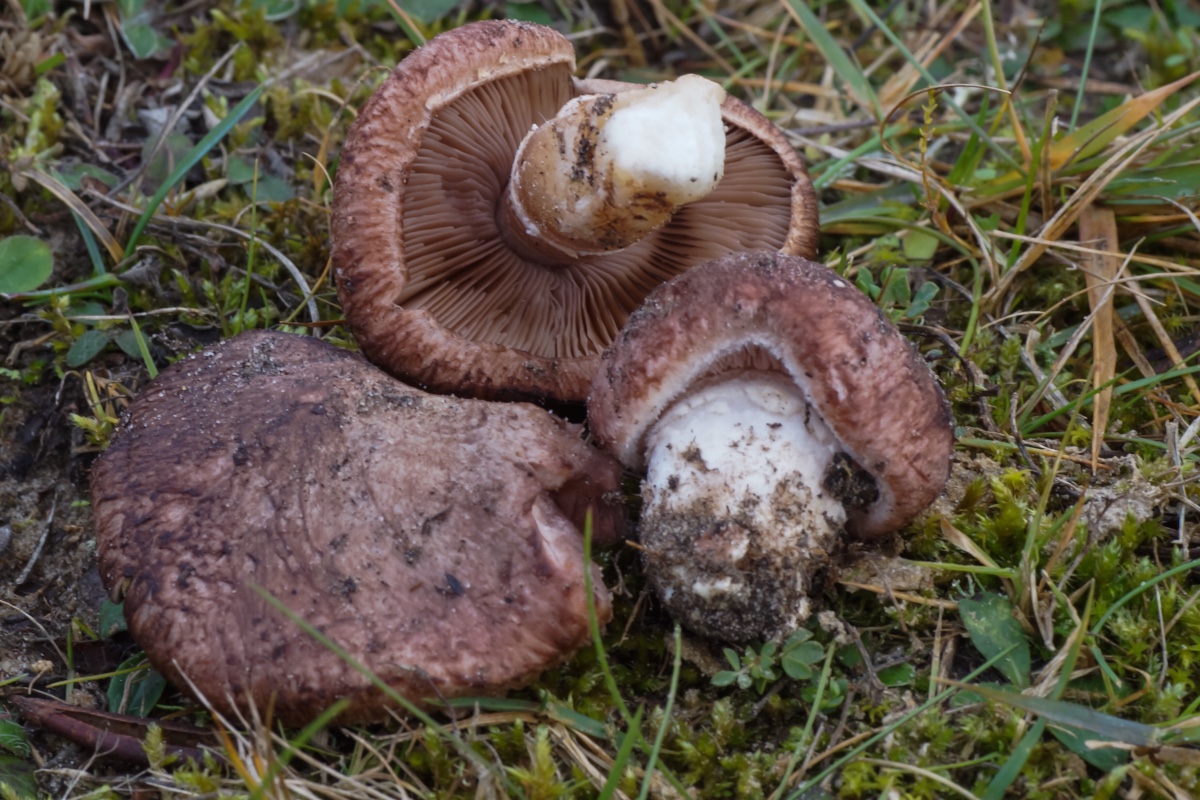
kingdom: Fungi
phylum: Basidiomycota
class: Agaricomycetes
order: Agaricales
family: Agaricaceae
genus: Agaricus
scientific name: Agaricus cupreobrunneus
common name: kobberbrun champignon
